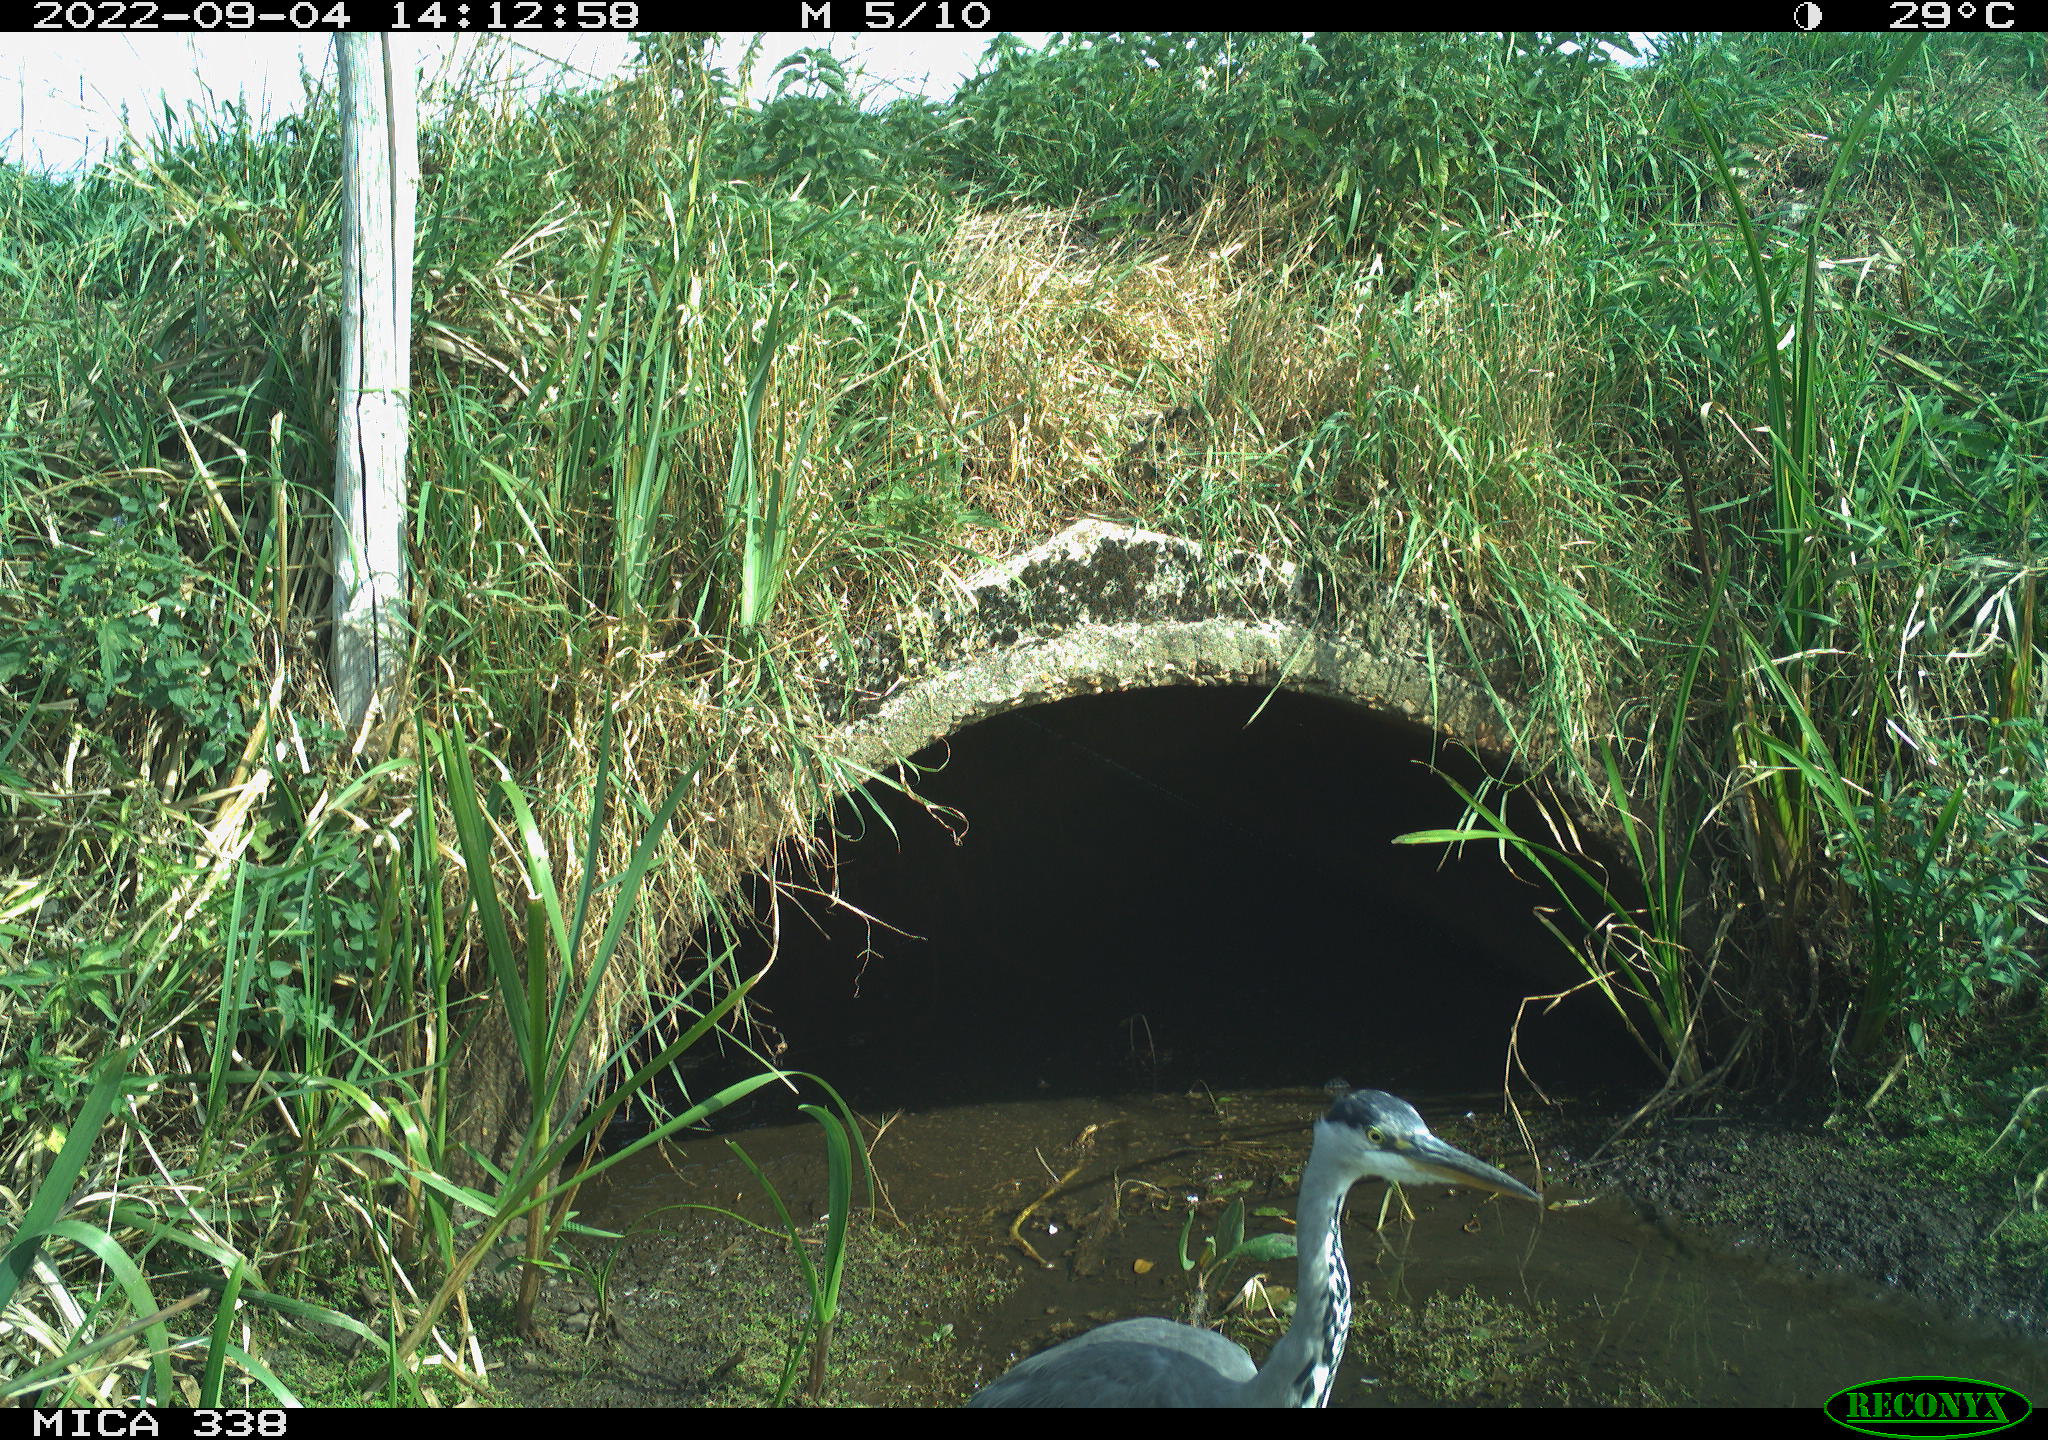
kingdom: Animalia
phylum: Chordata
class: Aves
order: Pelecaniformes
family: Ardeidae
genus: Ardea
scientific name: Ardea cinerea
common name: Grey heron
